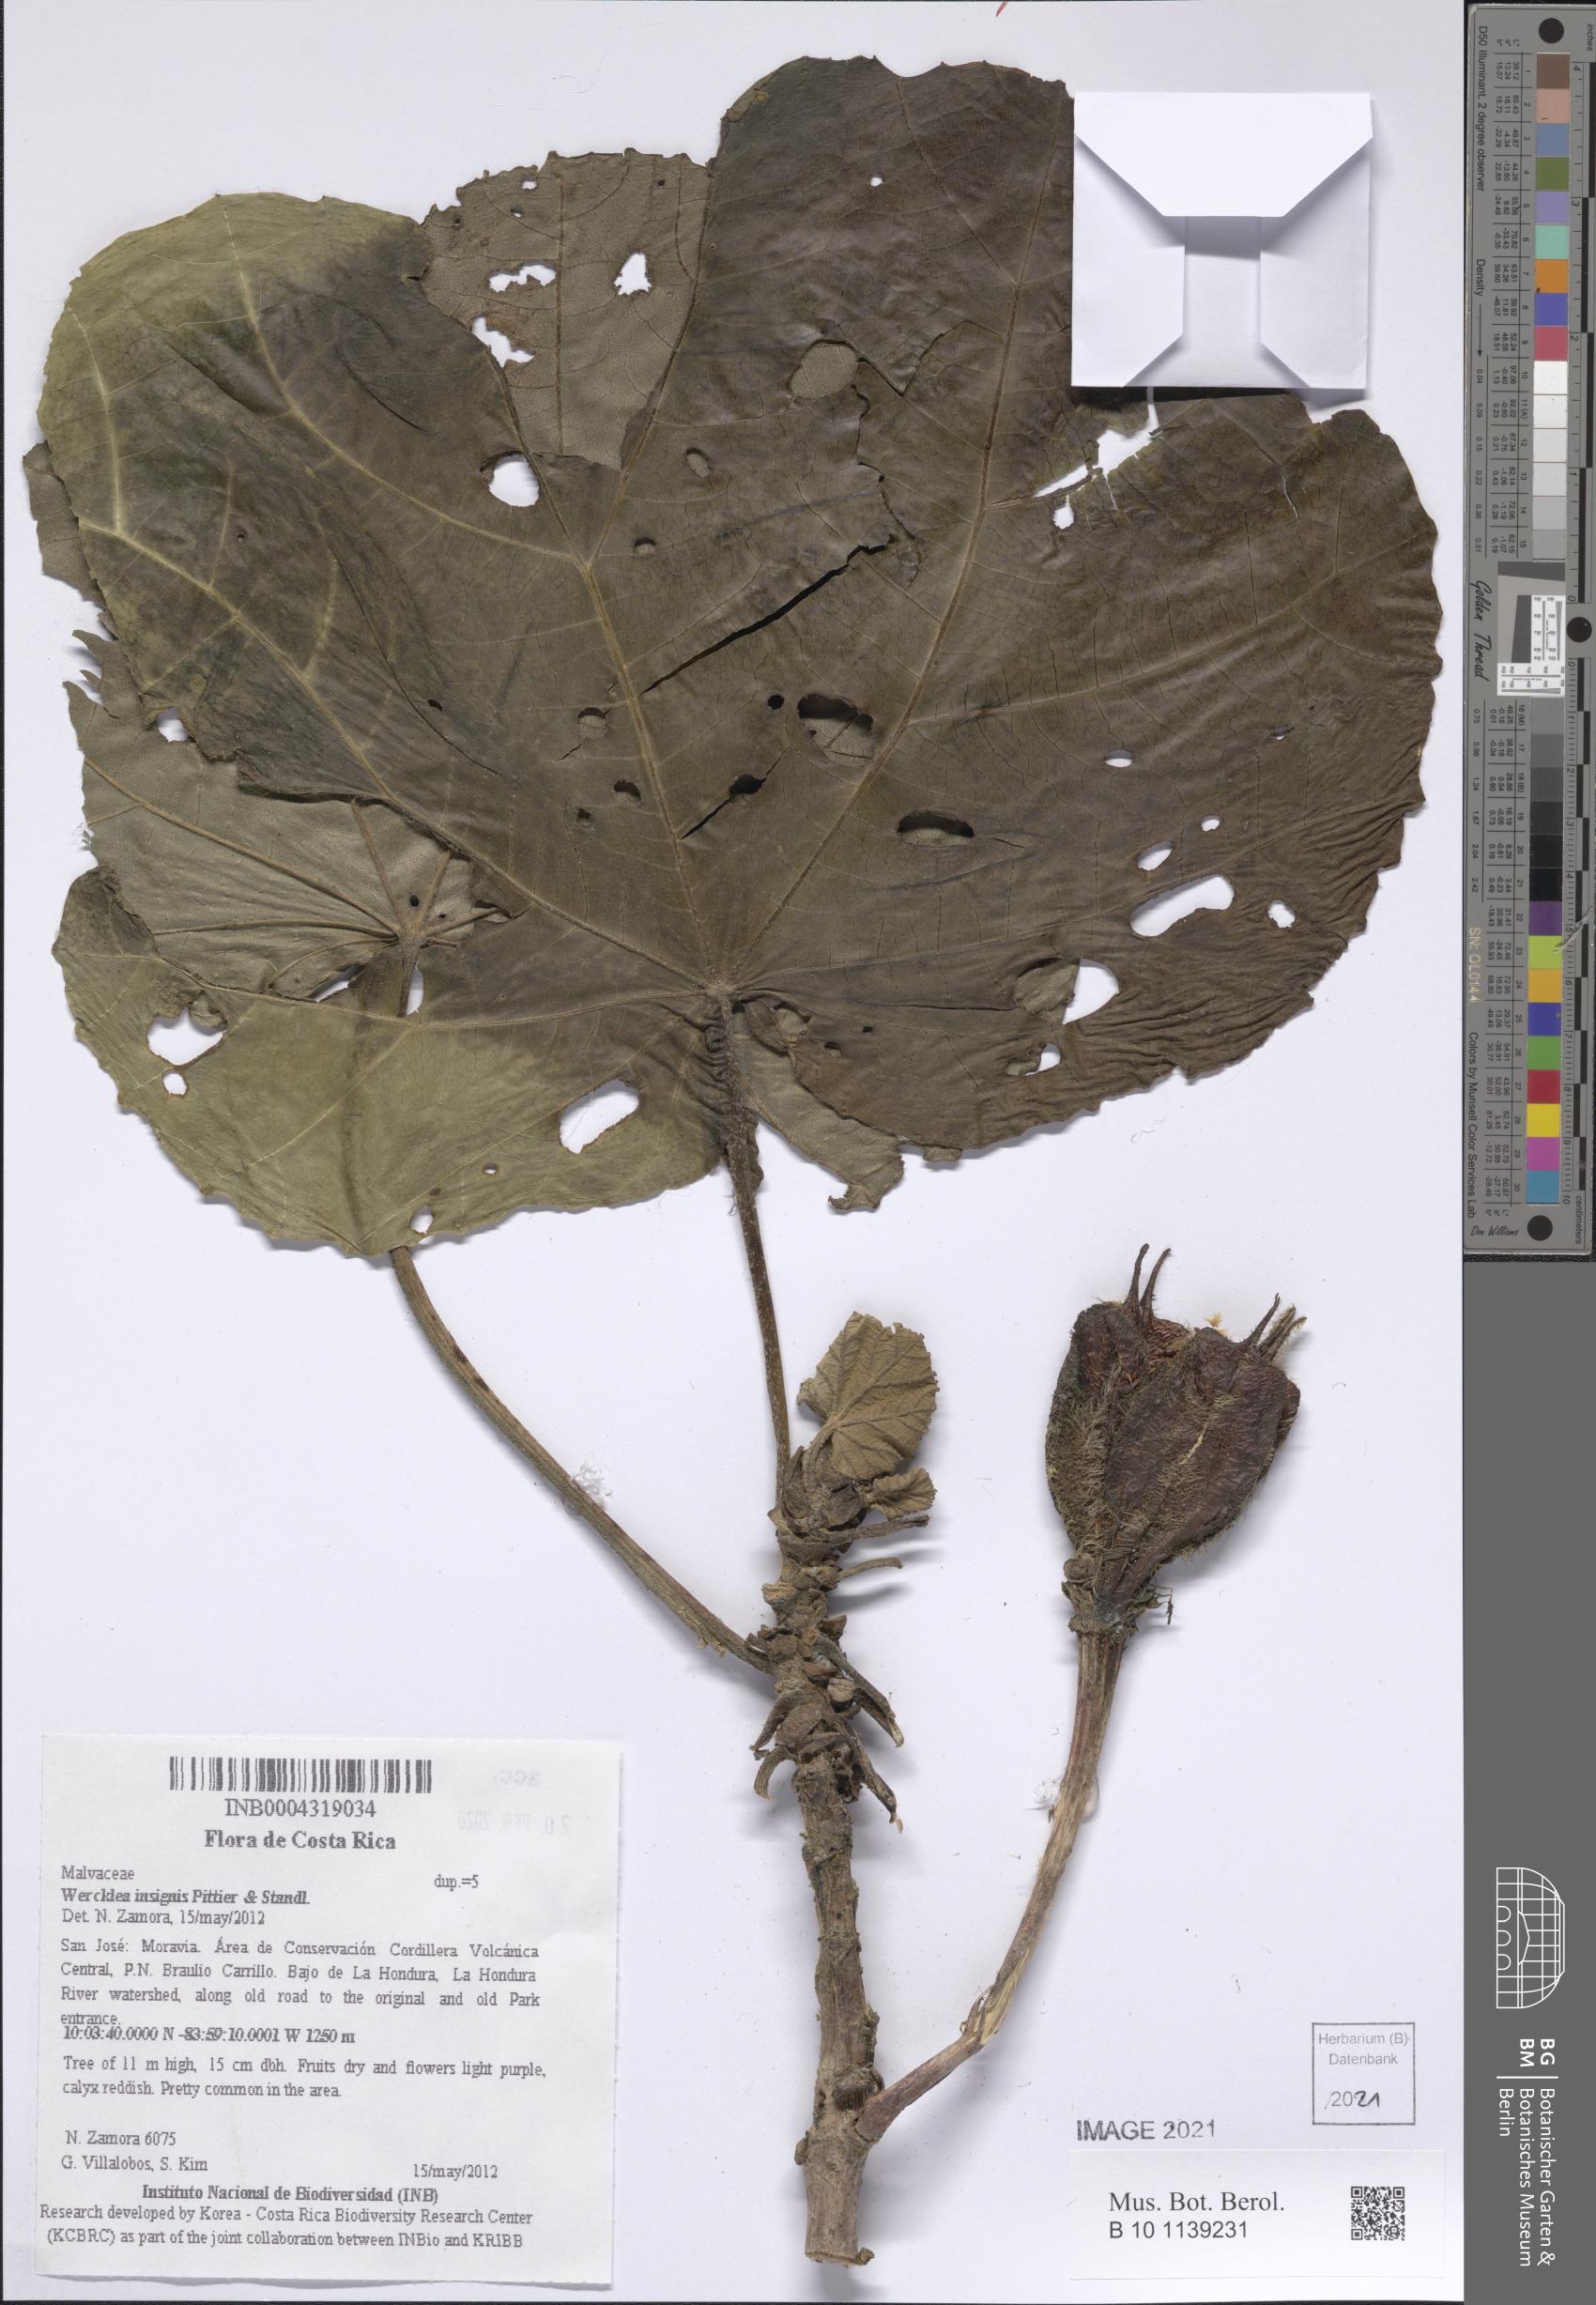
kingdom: Plantae
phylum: Tracheophyta
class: Magnoliopsida
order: Malvales
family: Malvaceae
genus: Wercklea
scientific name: Wercklea insignis
